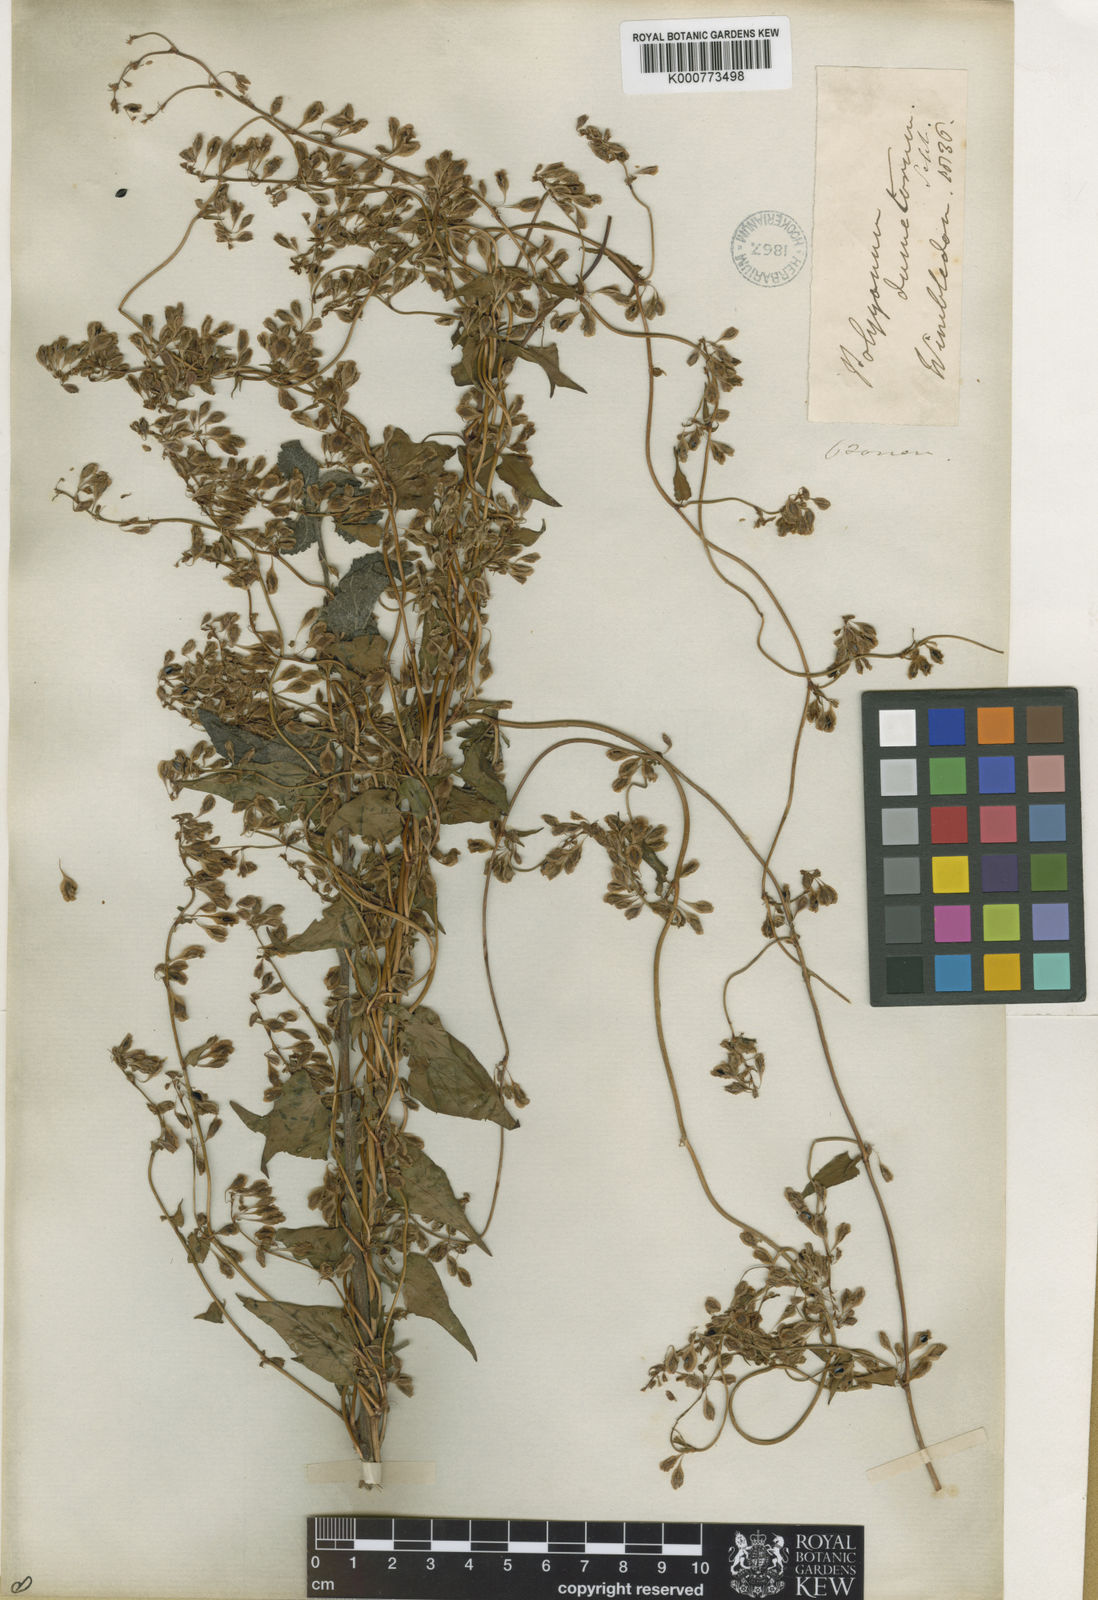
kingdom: Plantae
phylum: Tracheophyta
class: Magnoliopsida
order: Caryophyllales
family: Polygonaceae
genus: Fallopia
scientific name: Fallopia dumetorum
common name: Copse-bindweed
